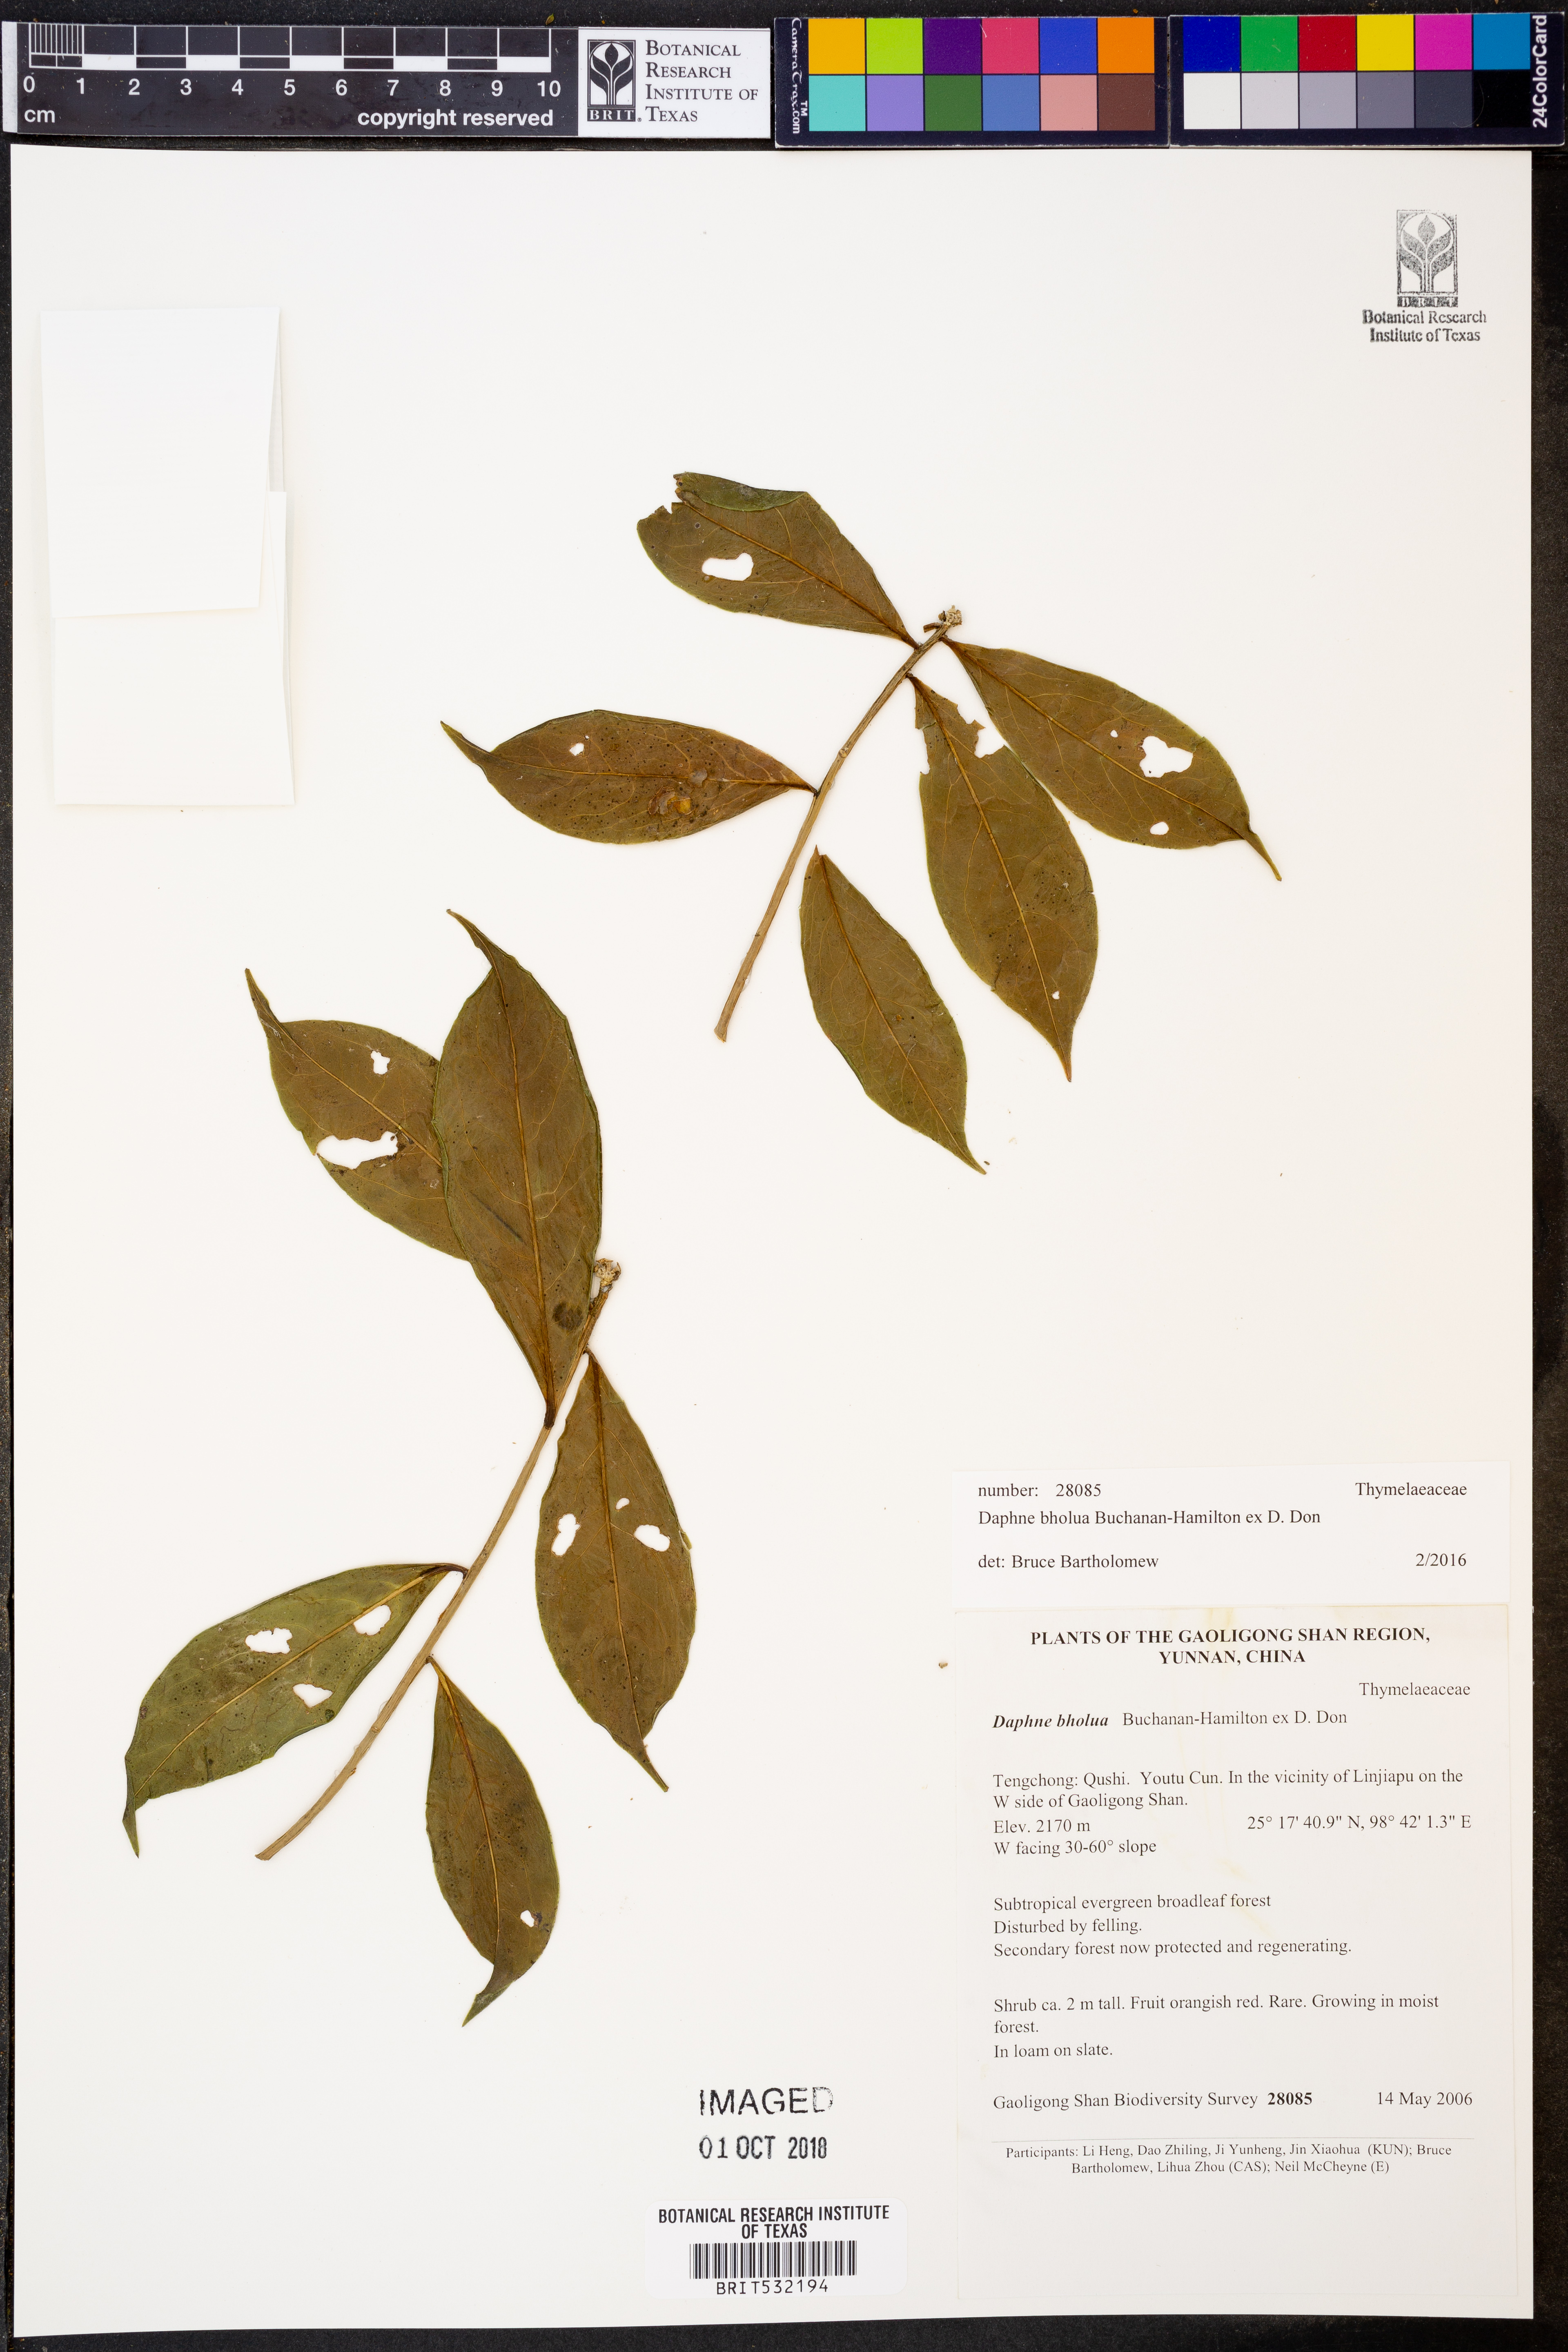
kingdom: Plantae
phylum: Tracheophyta
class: Magnoliopsida
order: Malvales
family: Thymelaeaceae
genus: Daphne
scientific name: Daphne bholua
